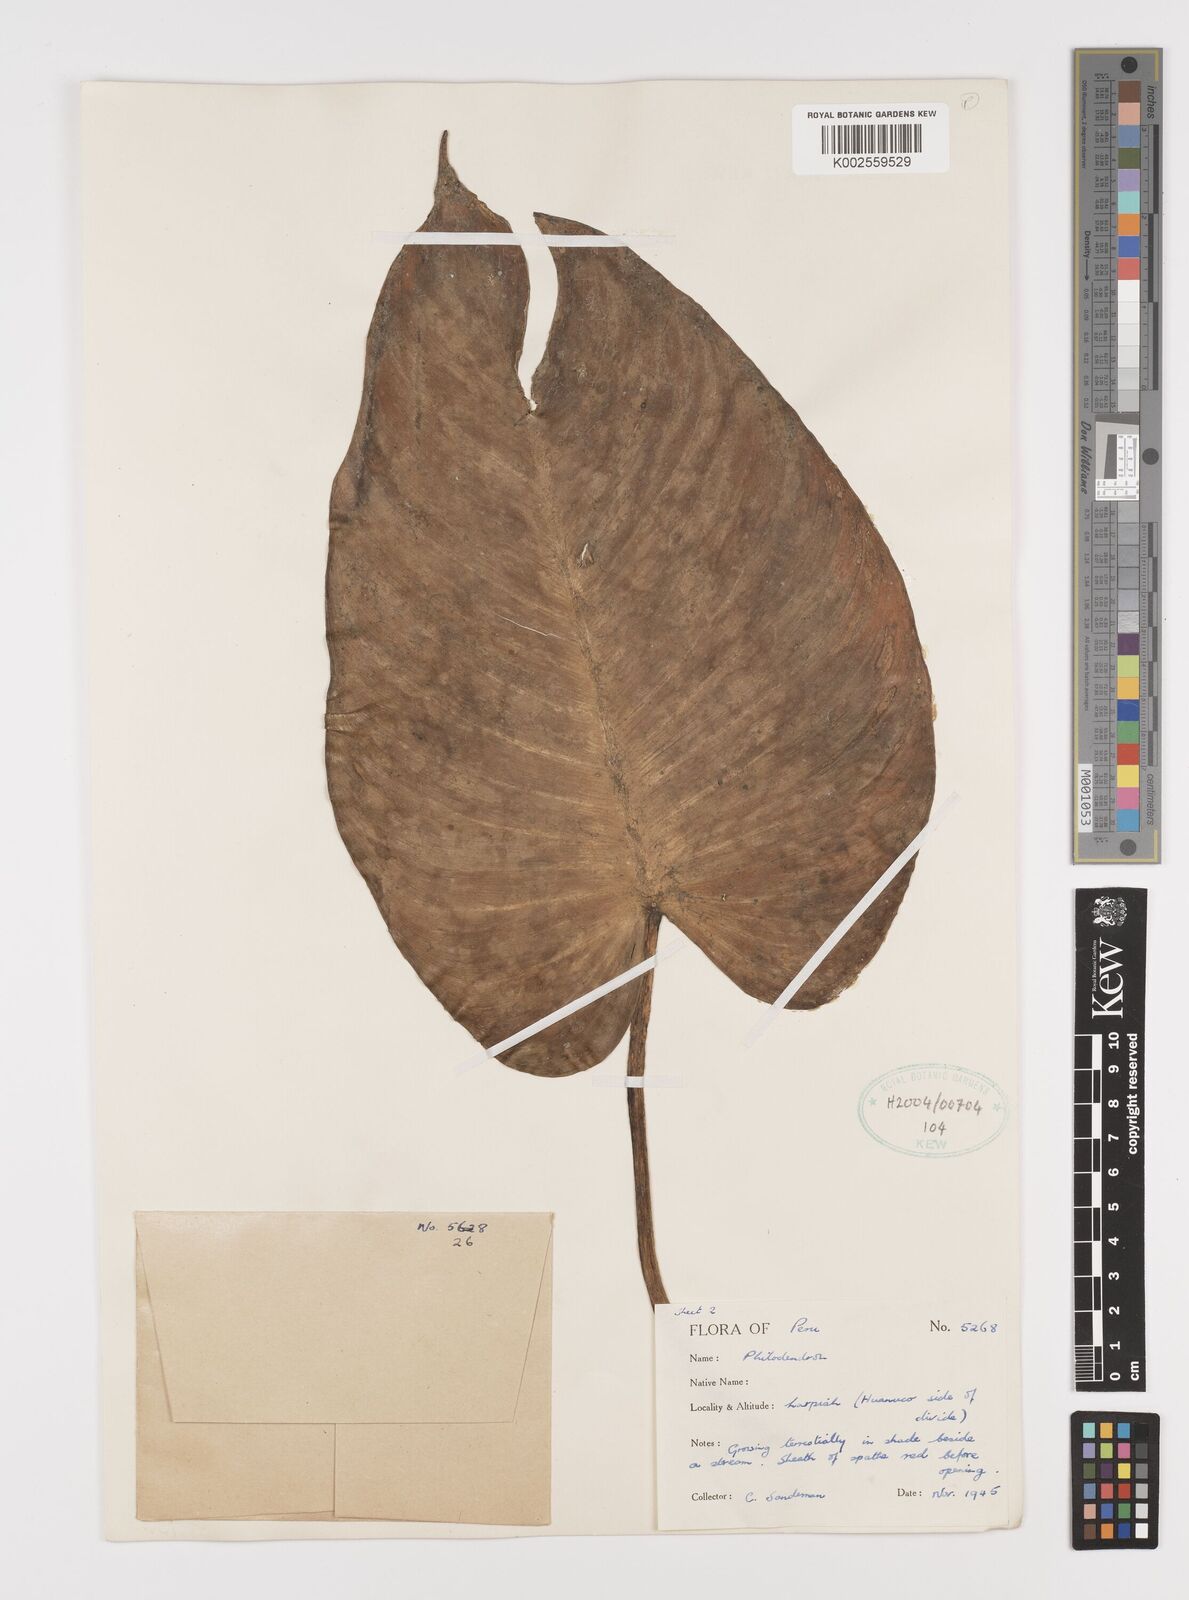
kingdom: Plantae
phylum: Tracheophyta
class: Liliopsida
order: Alismatales
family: Araceae
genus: Philodendron
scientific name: Philodendron
